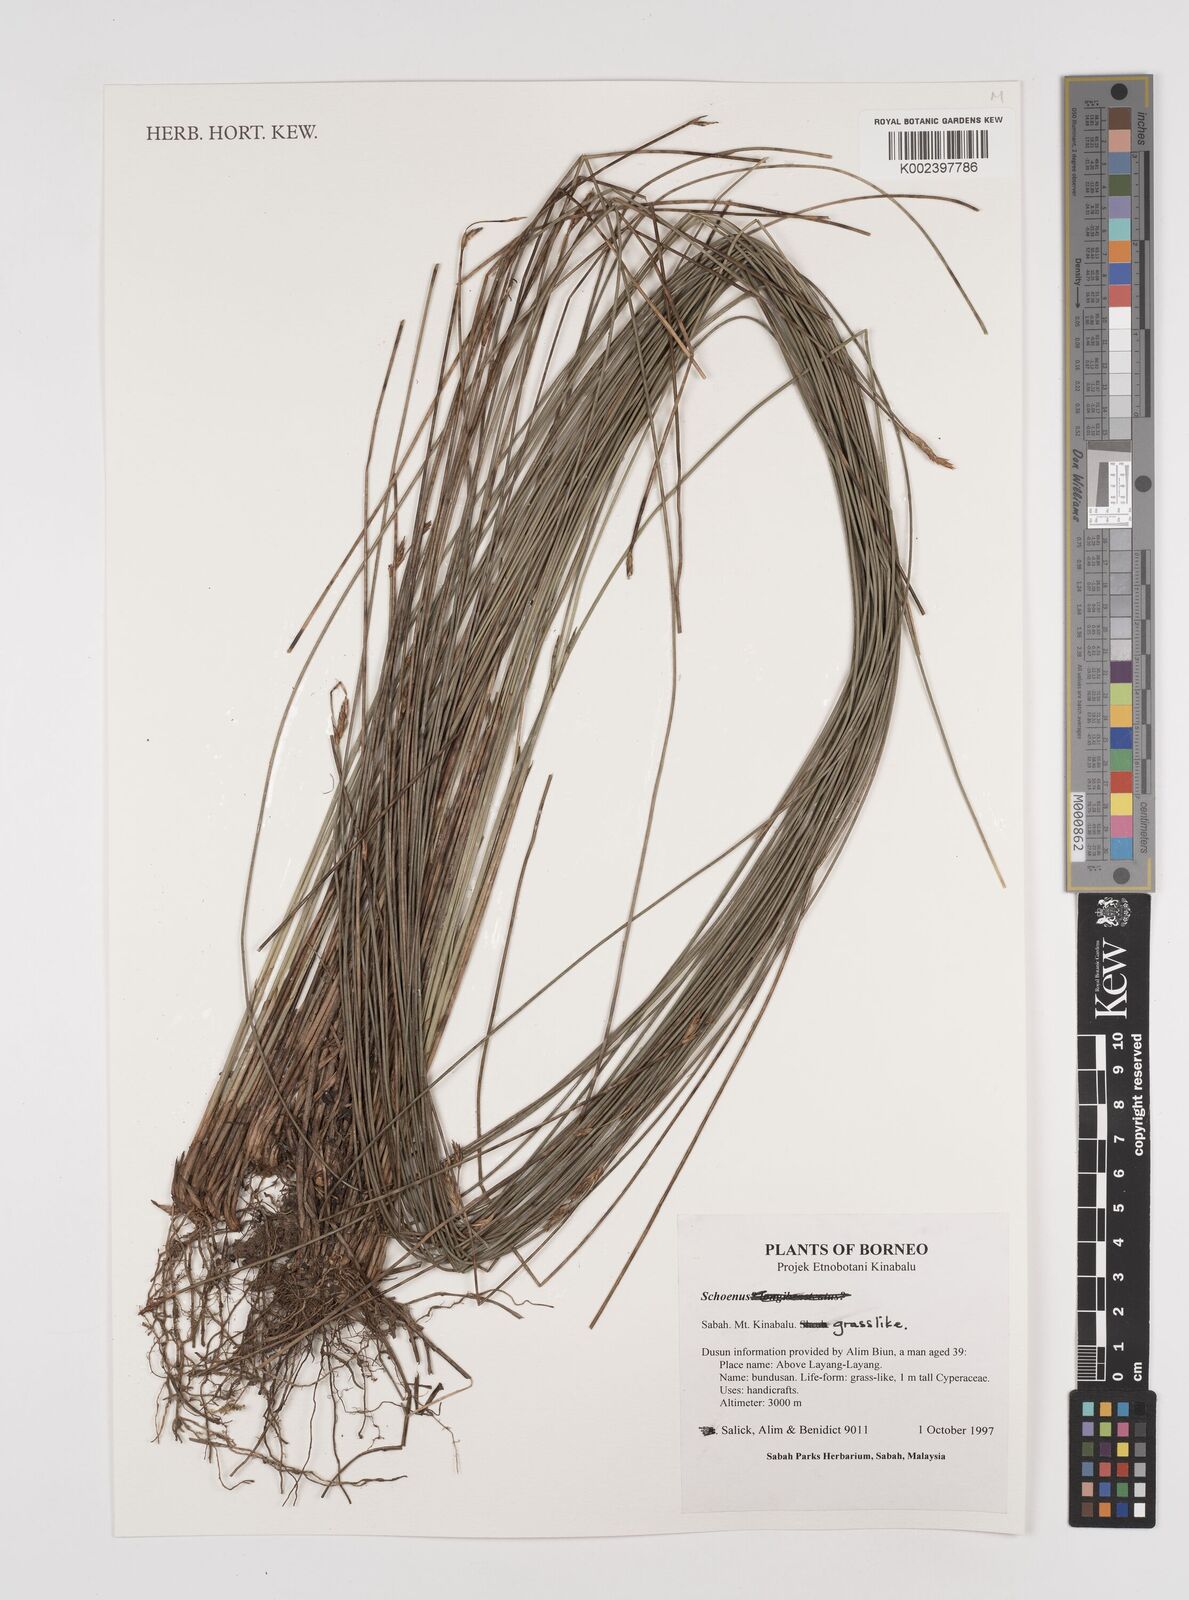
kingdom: Plantae
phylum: Tracheophyta
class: Liliopsida
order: Poales
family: Cyperaceae
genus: Schoenus
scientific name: Schoenus
